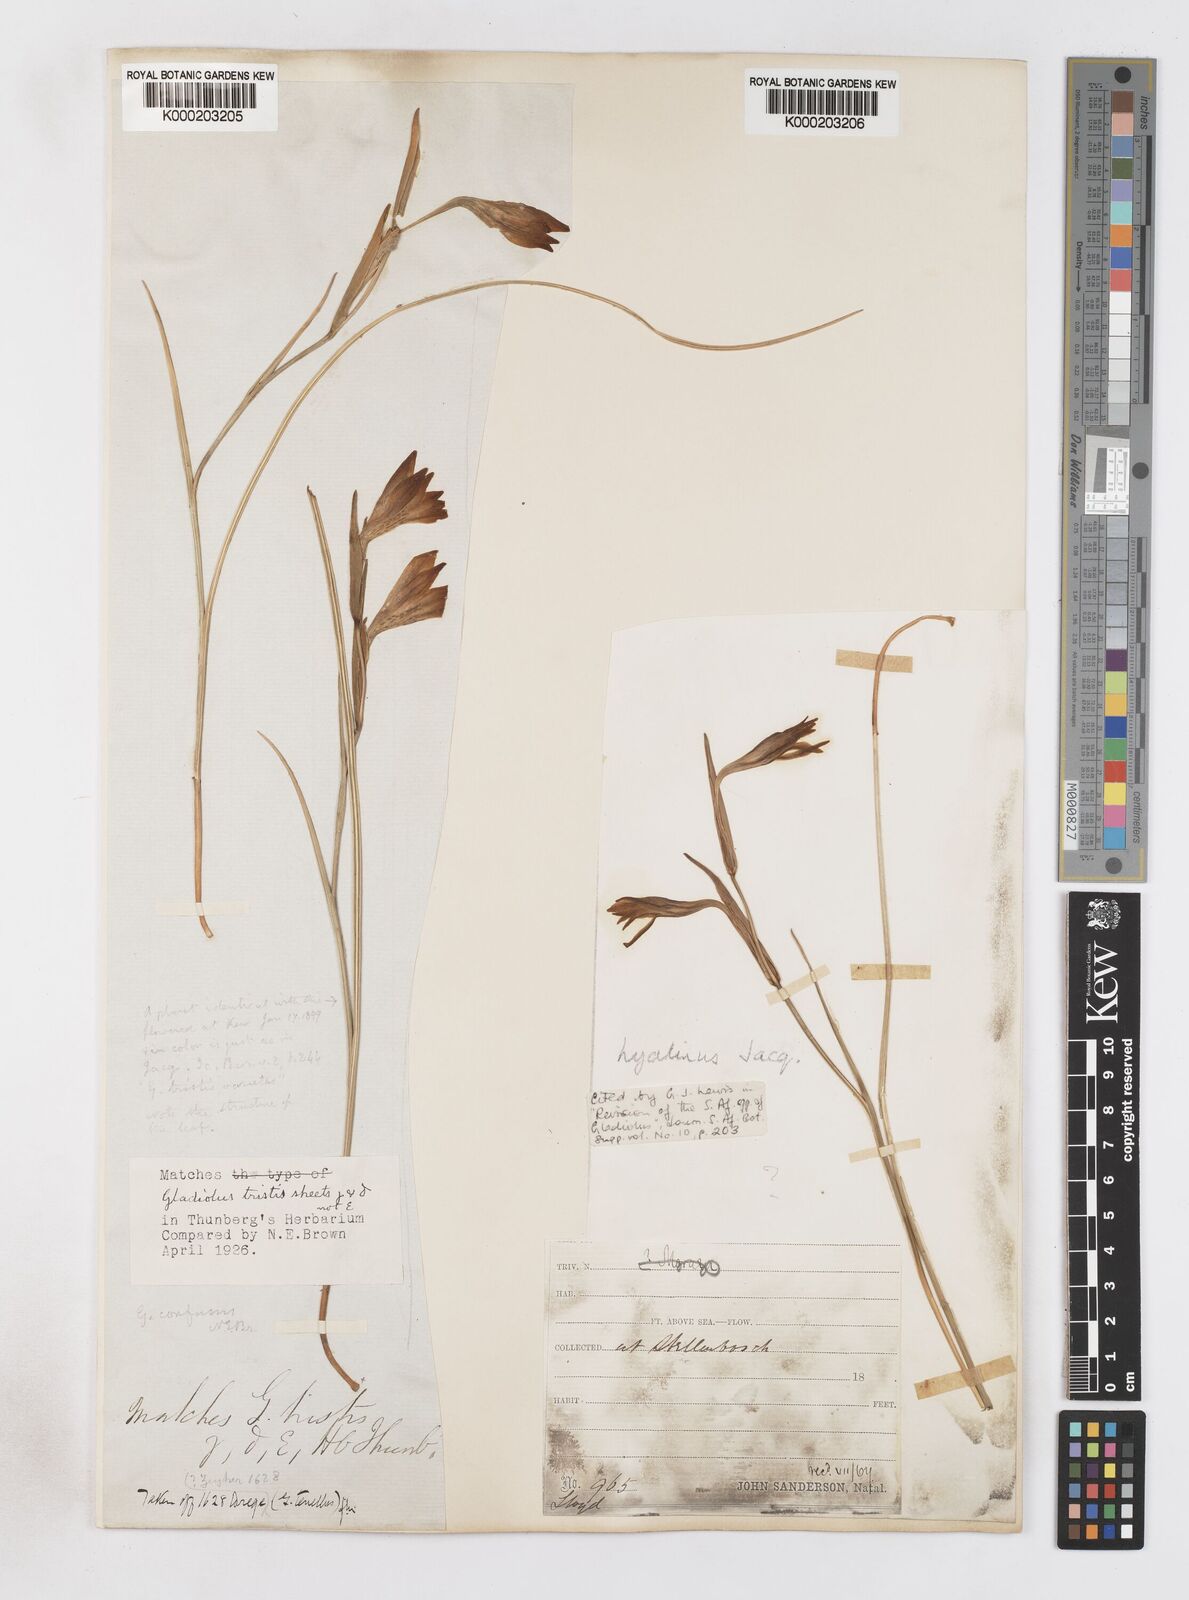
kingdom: Plantae
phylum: Tracheophyta
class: Liliopsida
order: Asparagales
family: Iridaceae
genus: Gladiolus
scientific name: Gladiolus hyalinus
